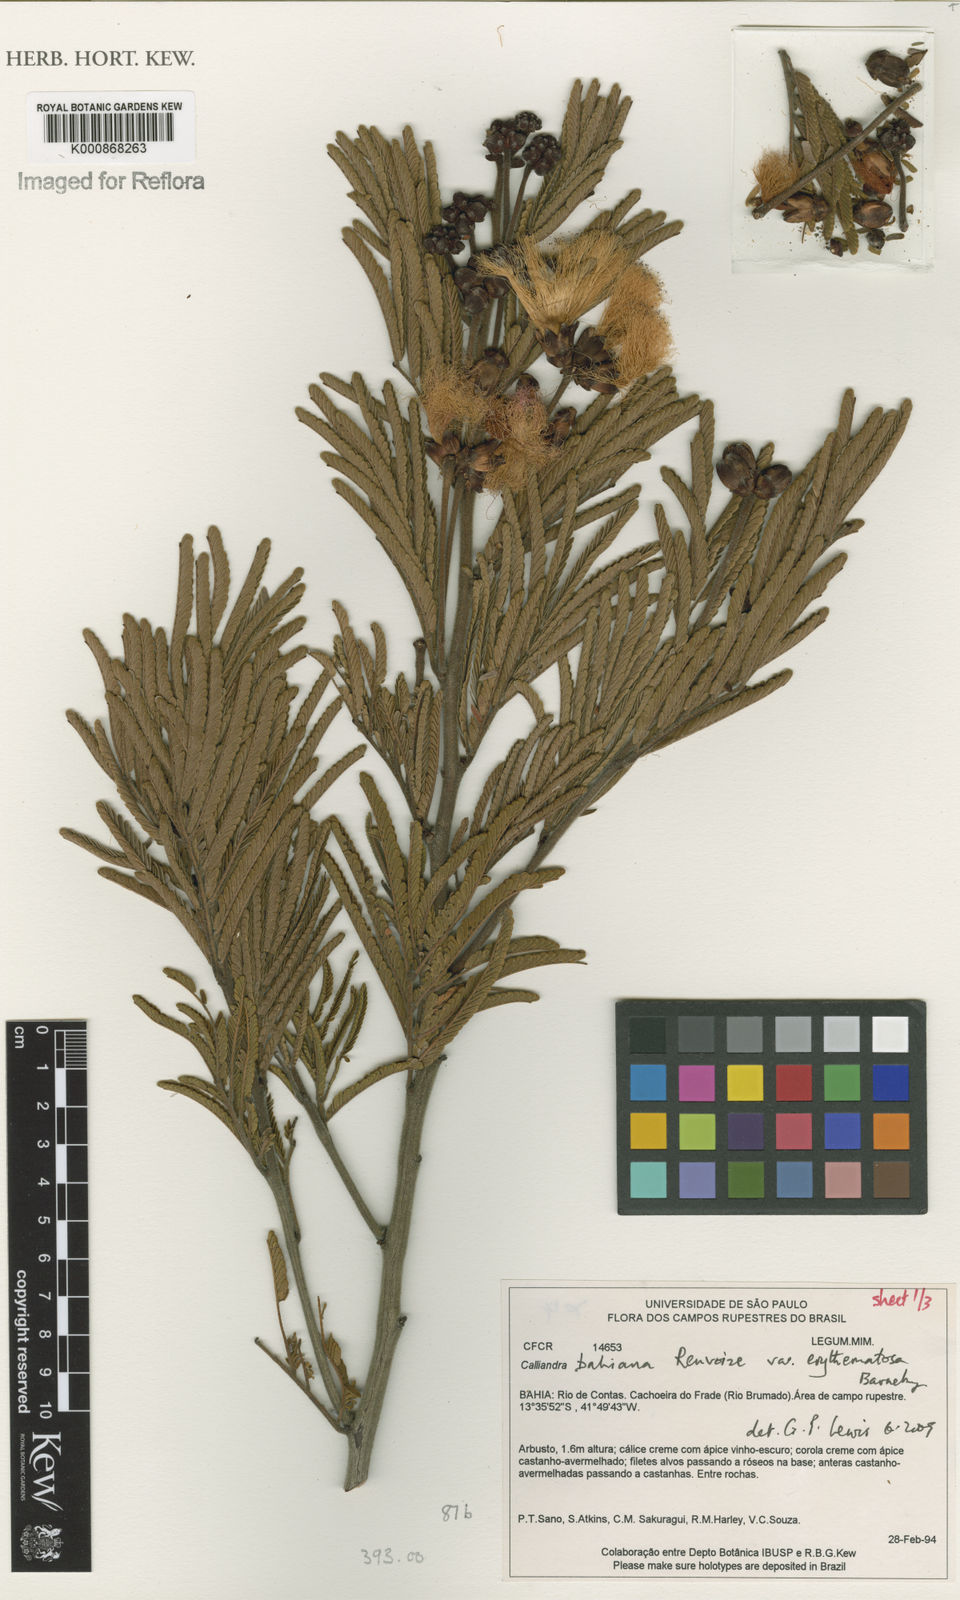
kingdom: Plantae
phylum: Tracheophyta
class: Magnoliopsida
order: Fabales
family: Fabaceae
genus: Calliandra
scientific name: Calliandra bahiana
